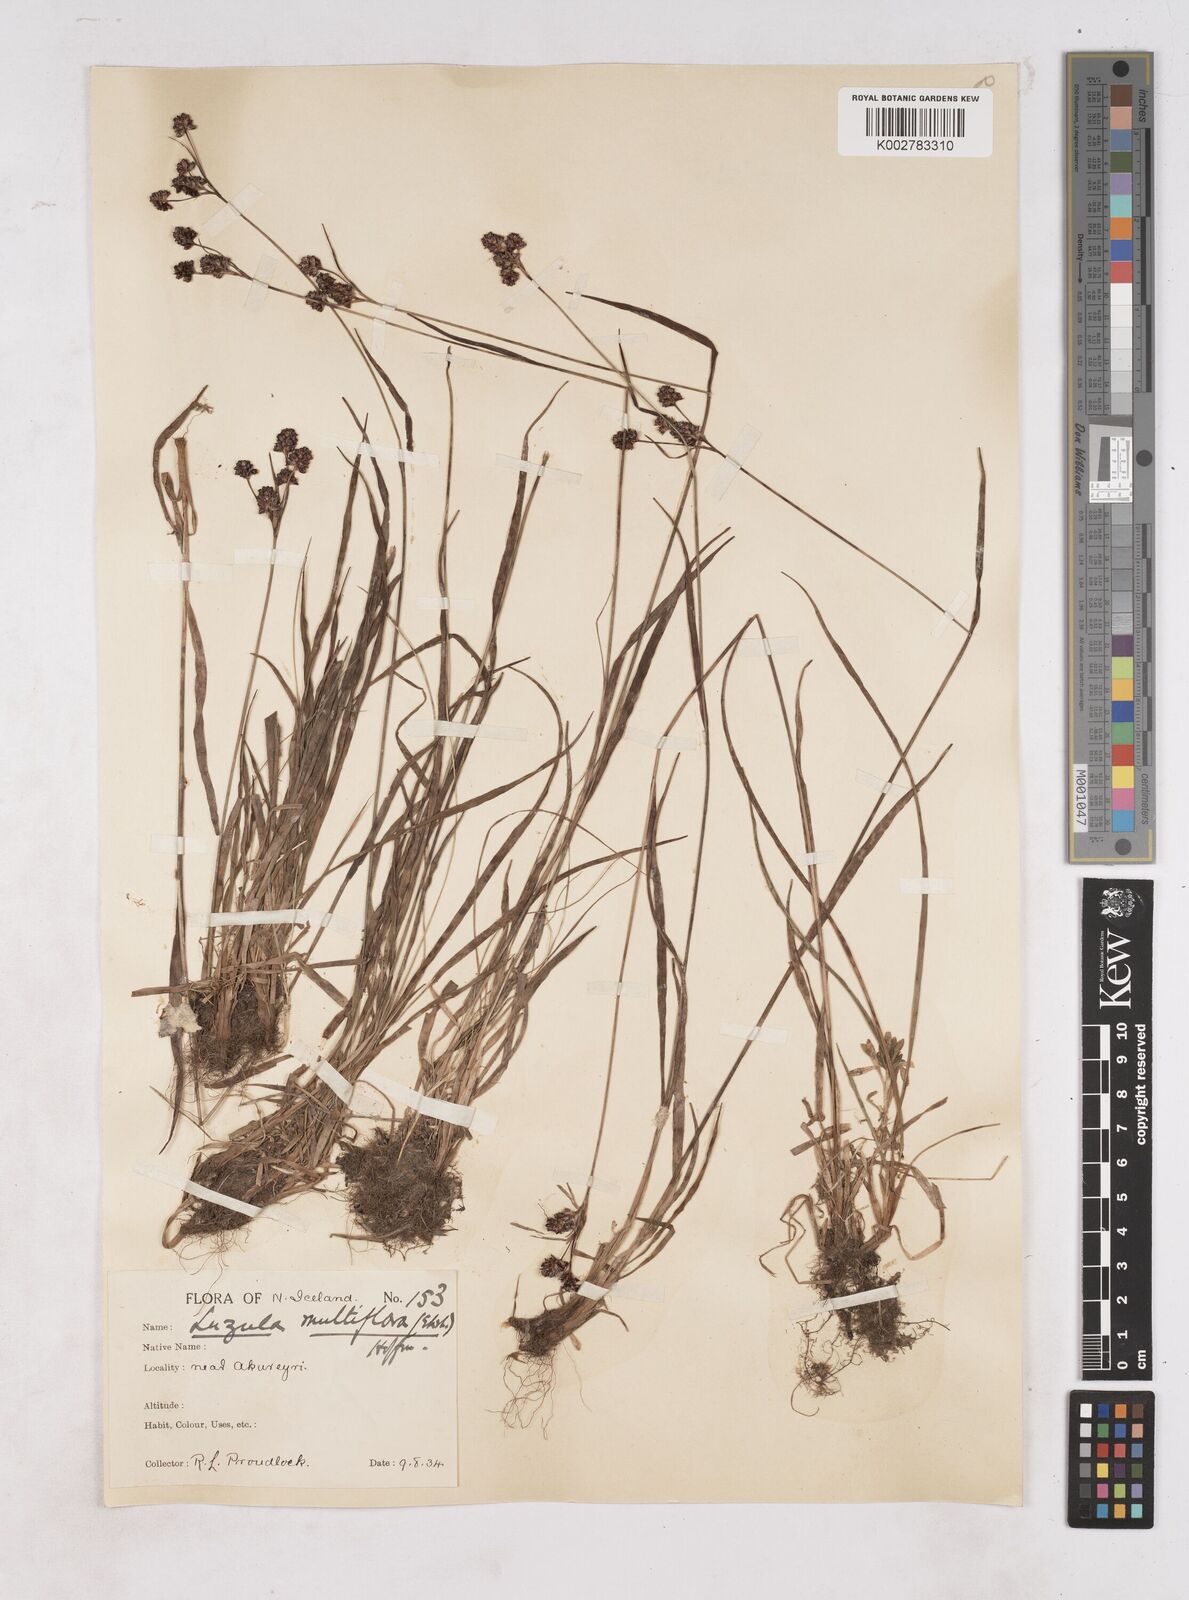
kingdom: Plantae
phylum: Tracheophyta
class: Liliopsida
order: Poales
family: Juncaceae
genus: Luzula
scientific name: Luzula multiflora
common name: Heath wood-rush
